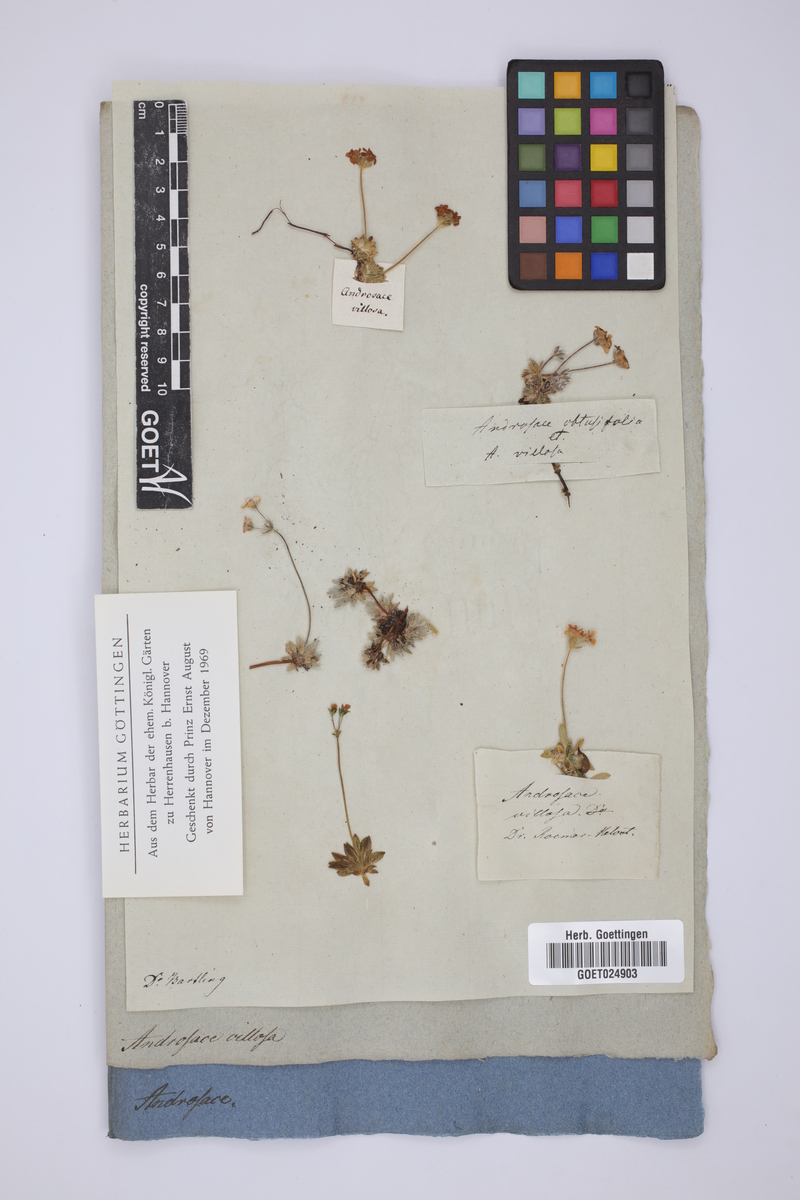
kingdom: Plantae
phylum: Tracheophyta
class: Magnoliopsida
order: Ericales
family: Primulaceae
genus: Androsace
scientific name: Androsace villosa
